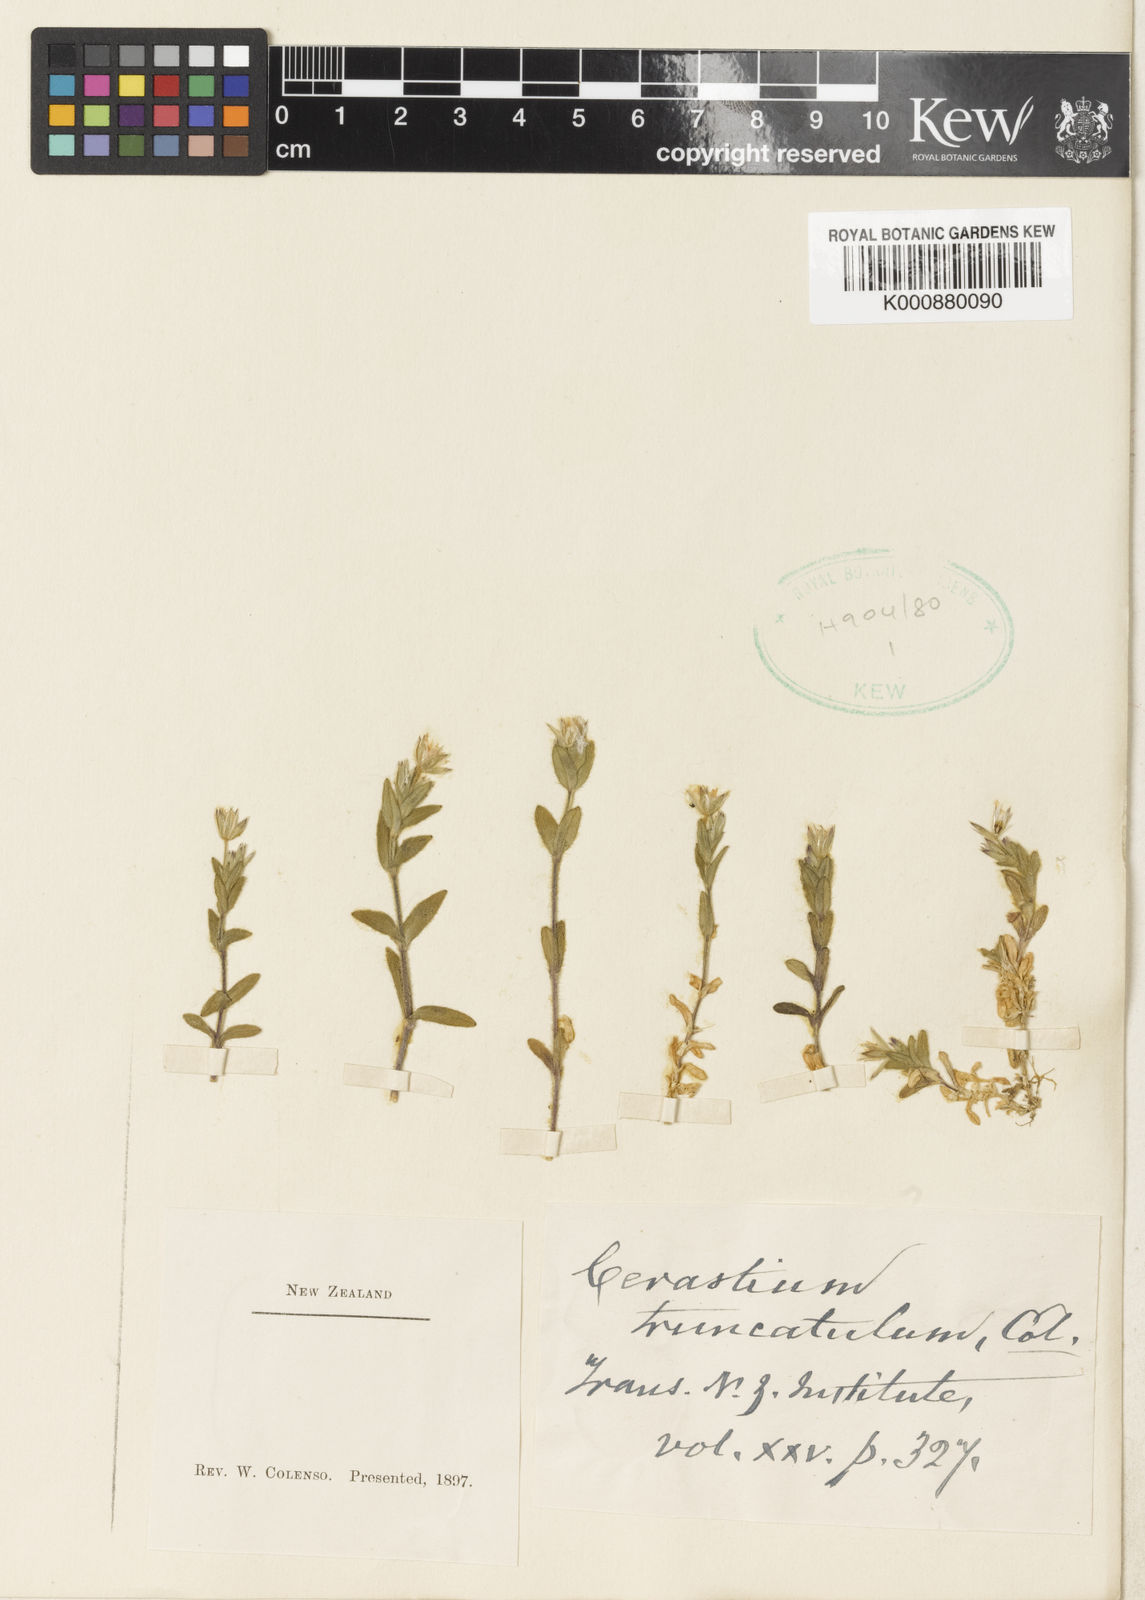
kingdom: Plantae
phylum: Tracheophyta
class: Magnoliopsida
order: Caryophyllales
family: Caryophyllaceae
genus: Cerastium
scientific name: Cerastium
